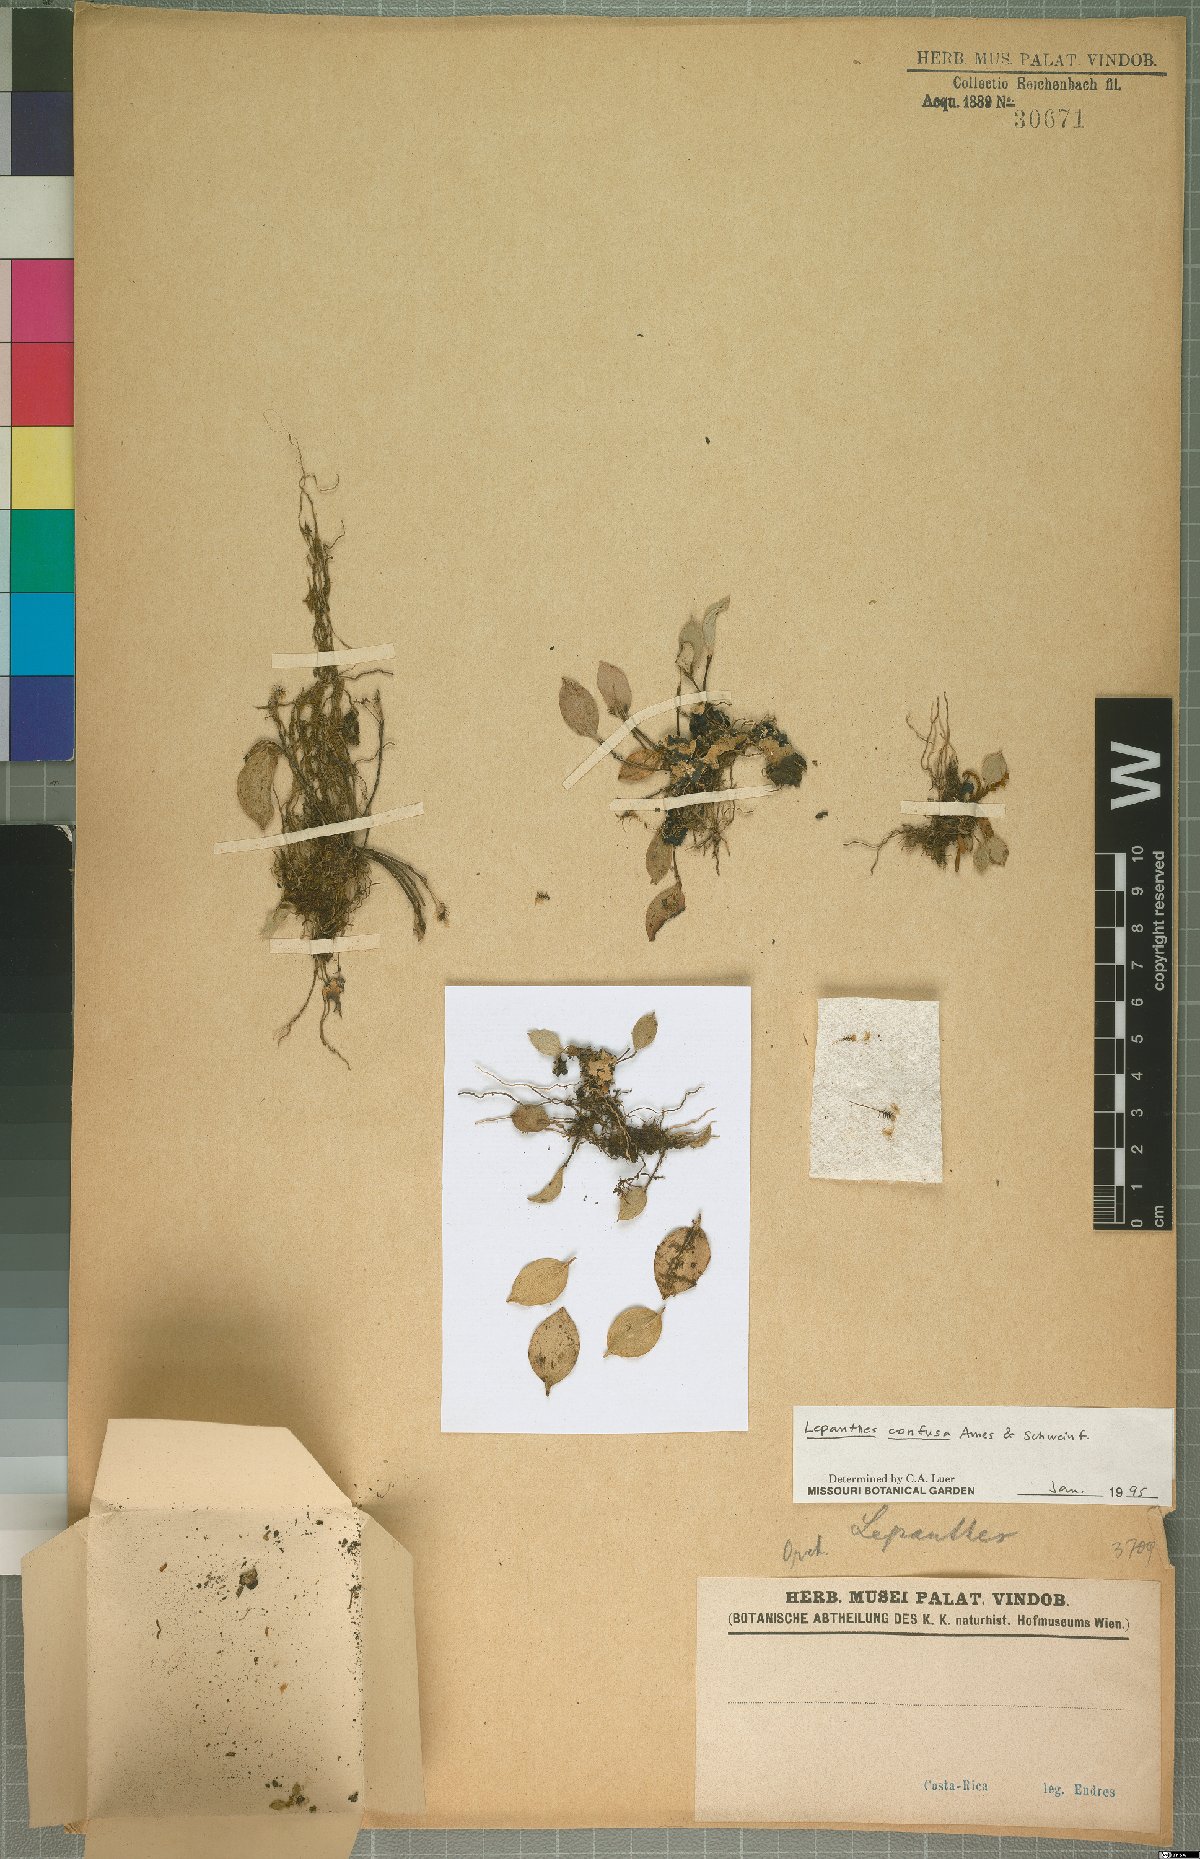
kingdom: Plantae
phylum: Tracheophyta
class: Liliopsida
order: Asparagales
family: Orchidaceae
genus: Lepanthes
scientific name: Lepanthes confusa
